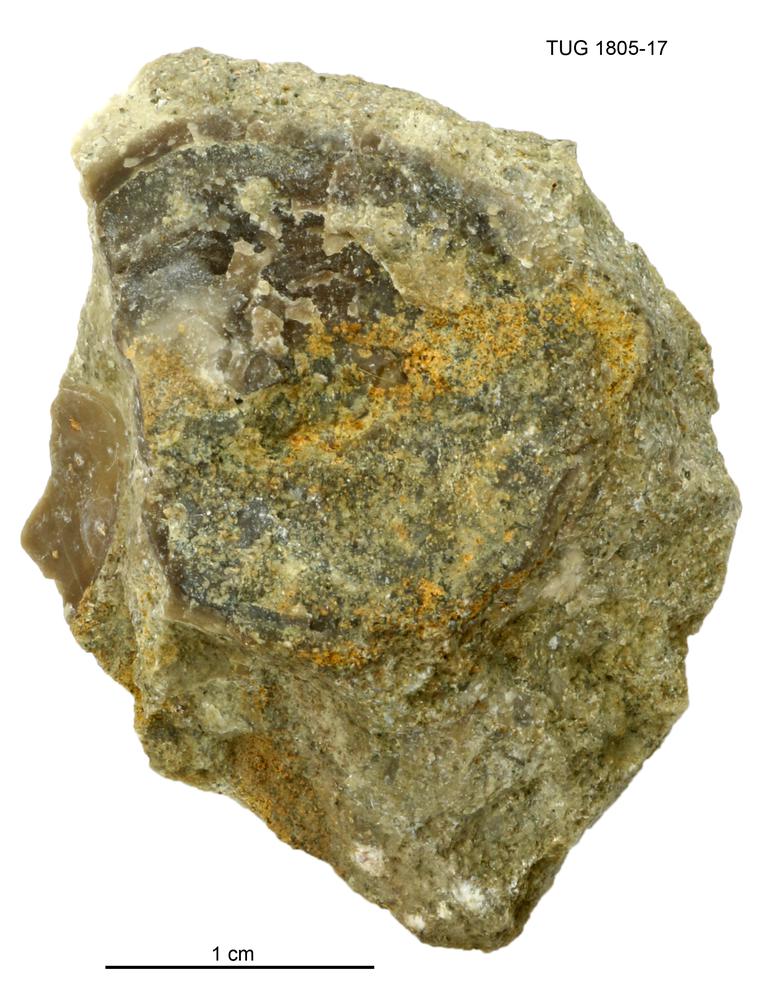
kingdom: Animalia
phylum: Mollusca
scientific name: Mollusca
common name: Mollusca
